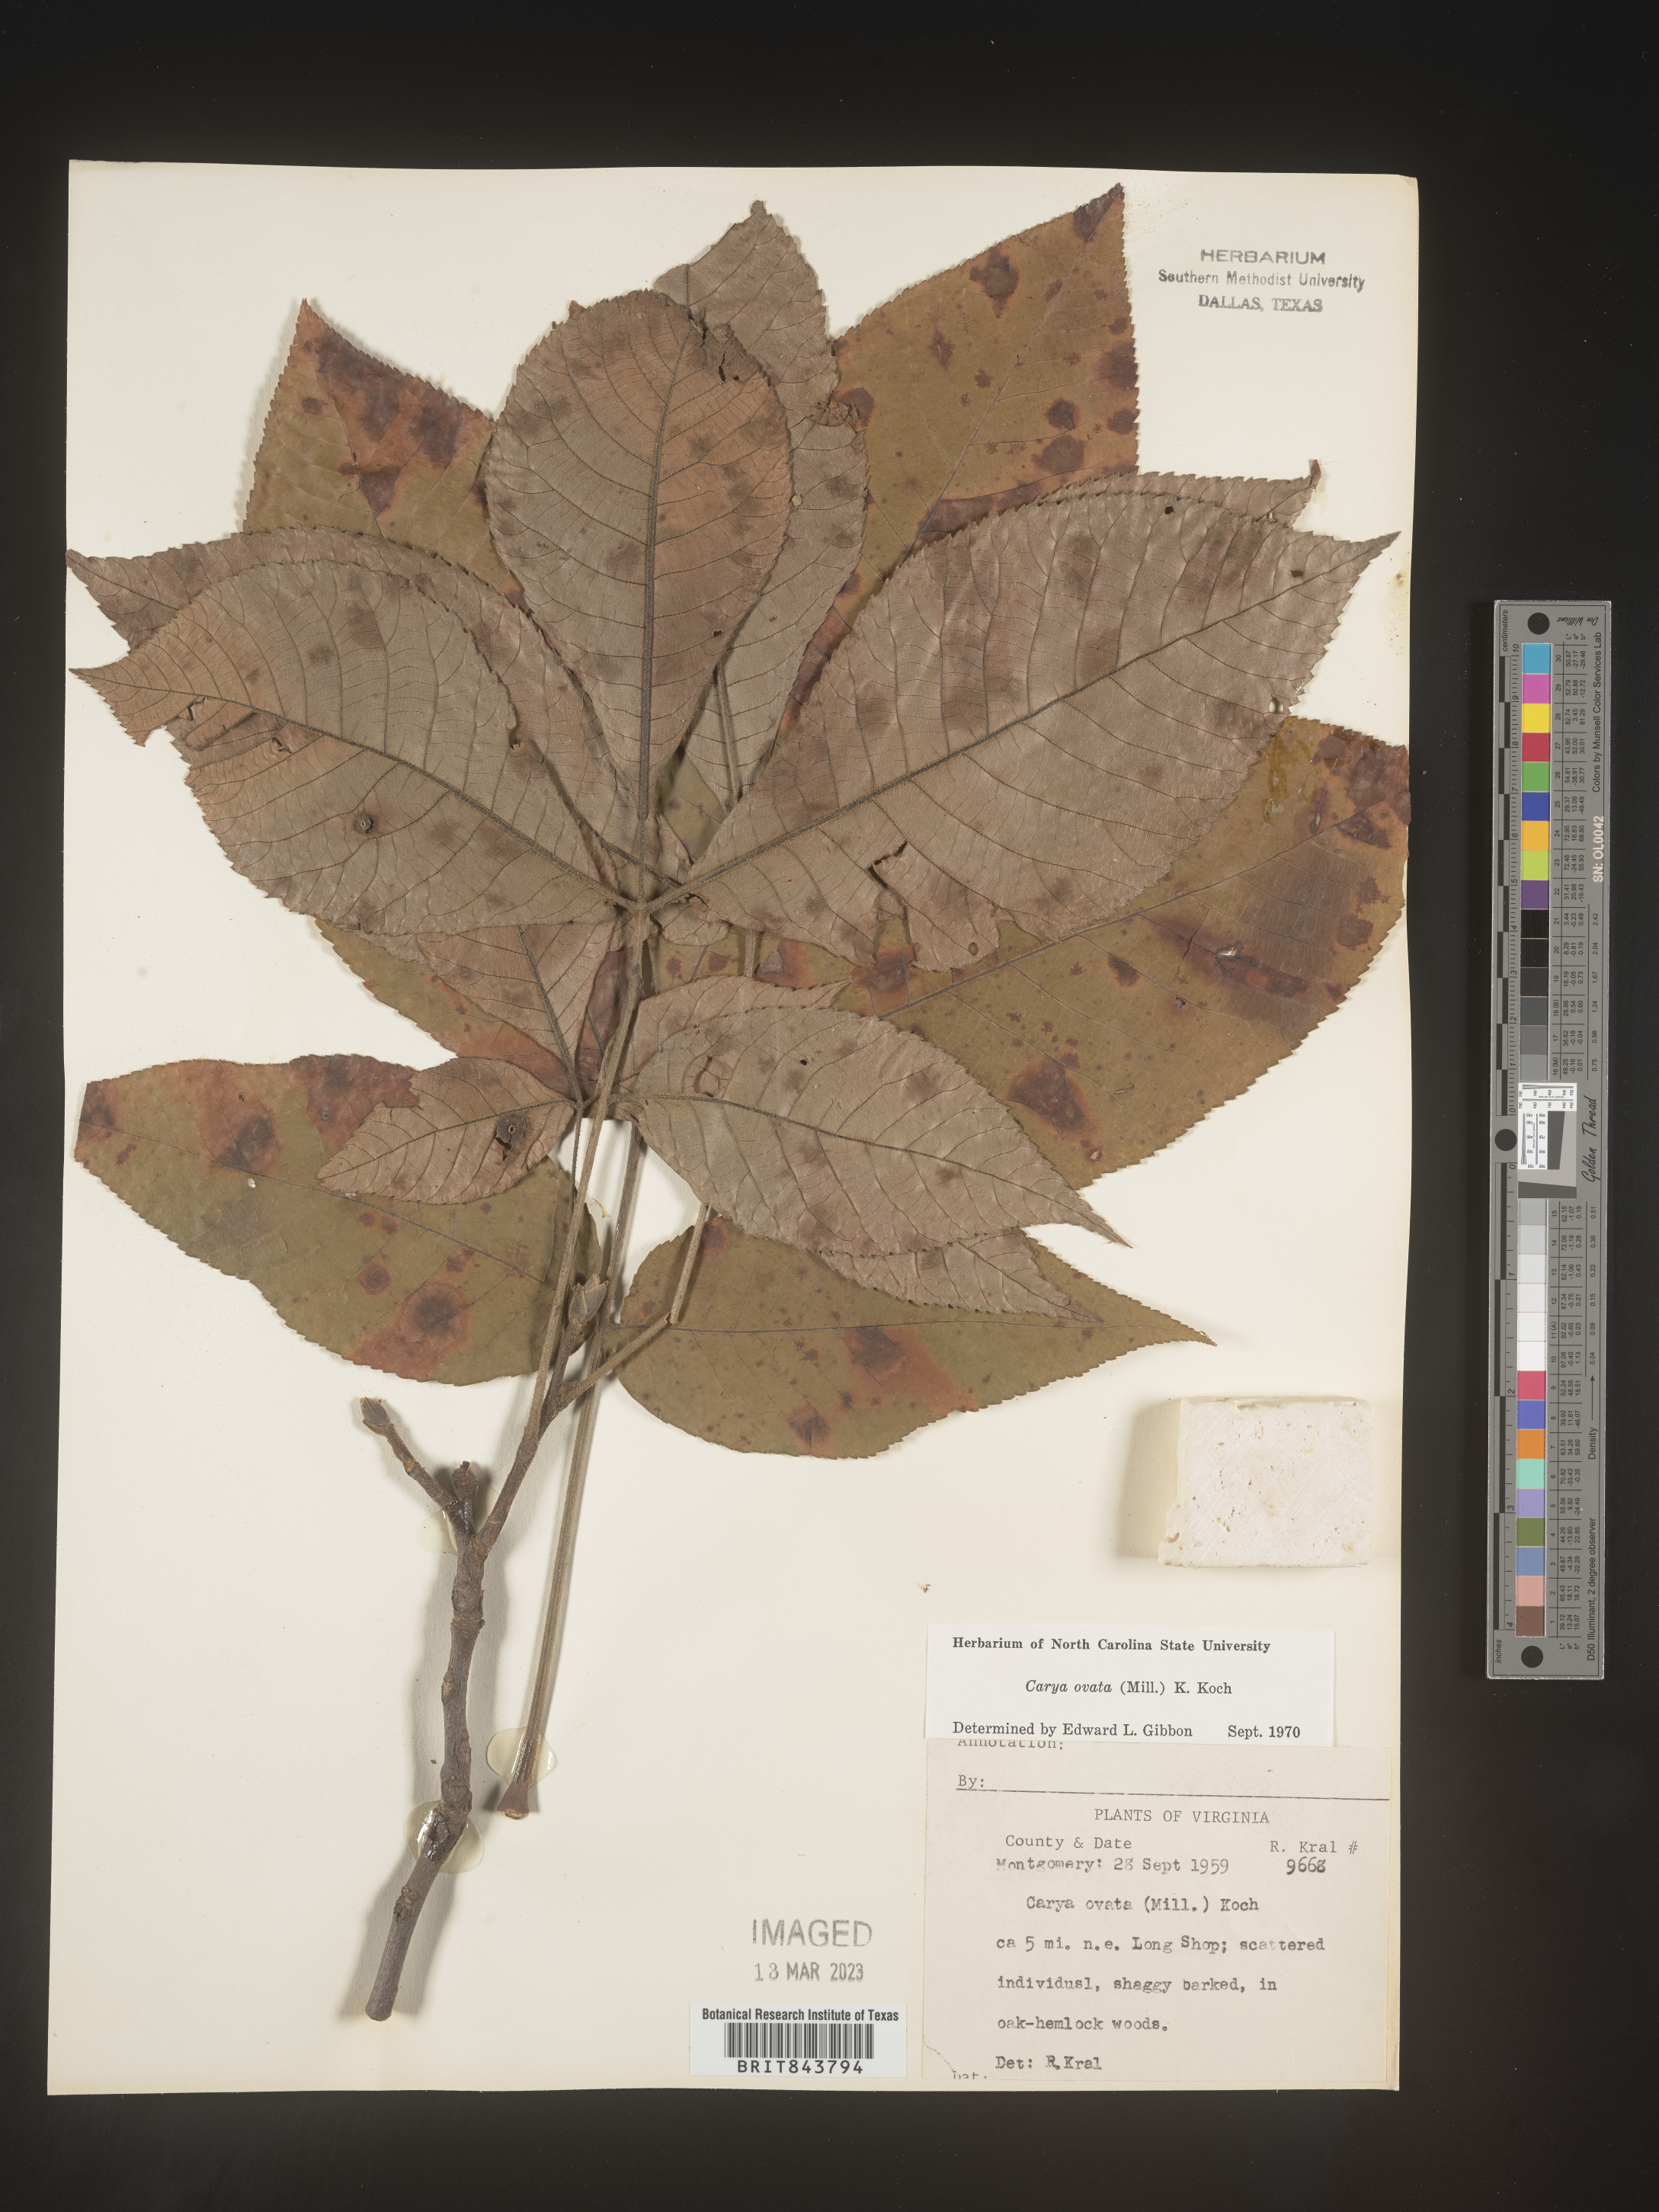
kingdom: Plantae
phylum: Tracheophyta
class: Magnoliopsida
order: Fagales
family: Juglandaceae
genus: Carya
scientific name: Carya ovata
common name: Shagbark hickory
